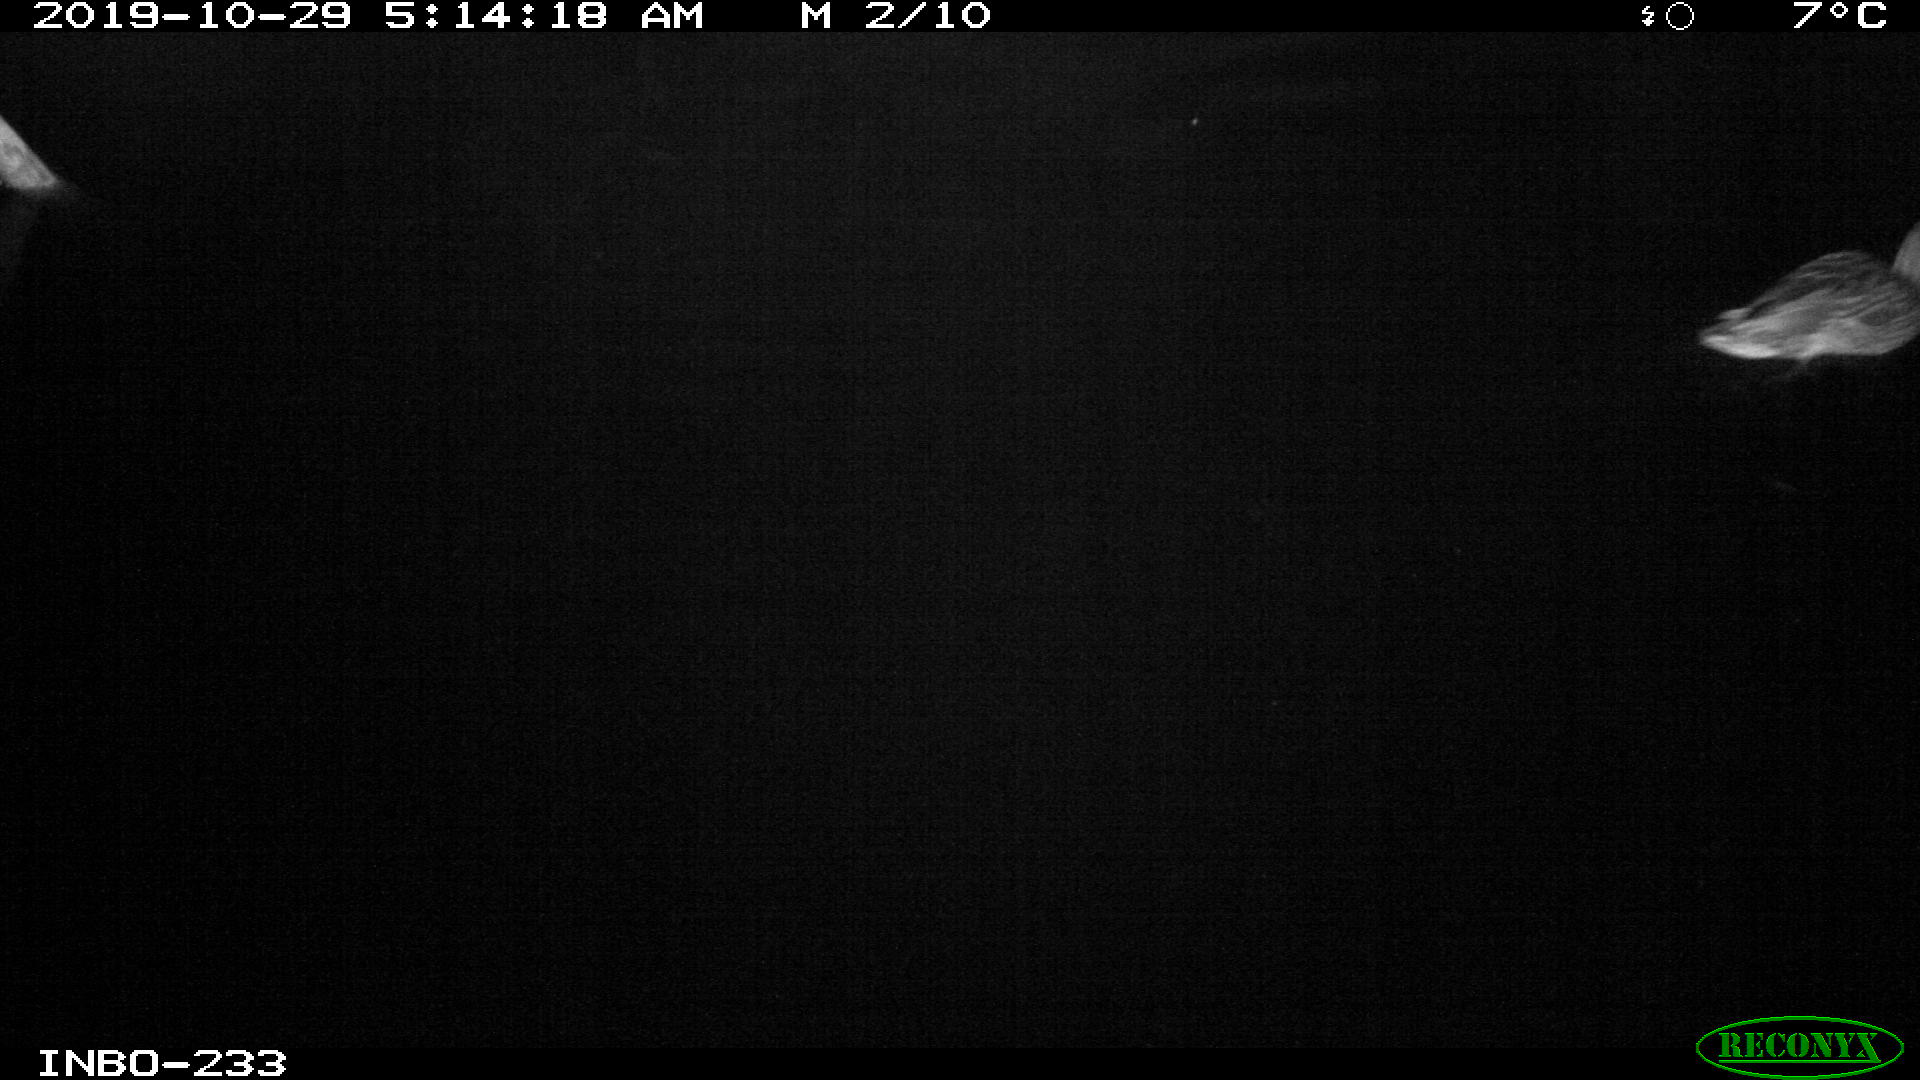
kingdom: Animalia
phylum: Chordata
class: Aves
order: Anseriformes
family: Anatidae
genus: Anas
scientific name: Anas platyrhynchos
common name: Mallard
